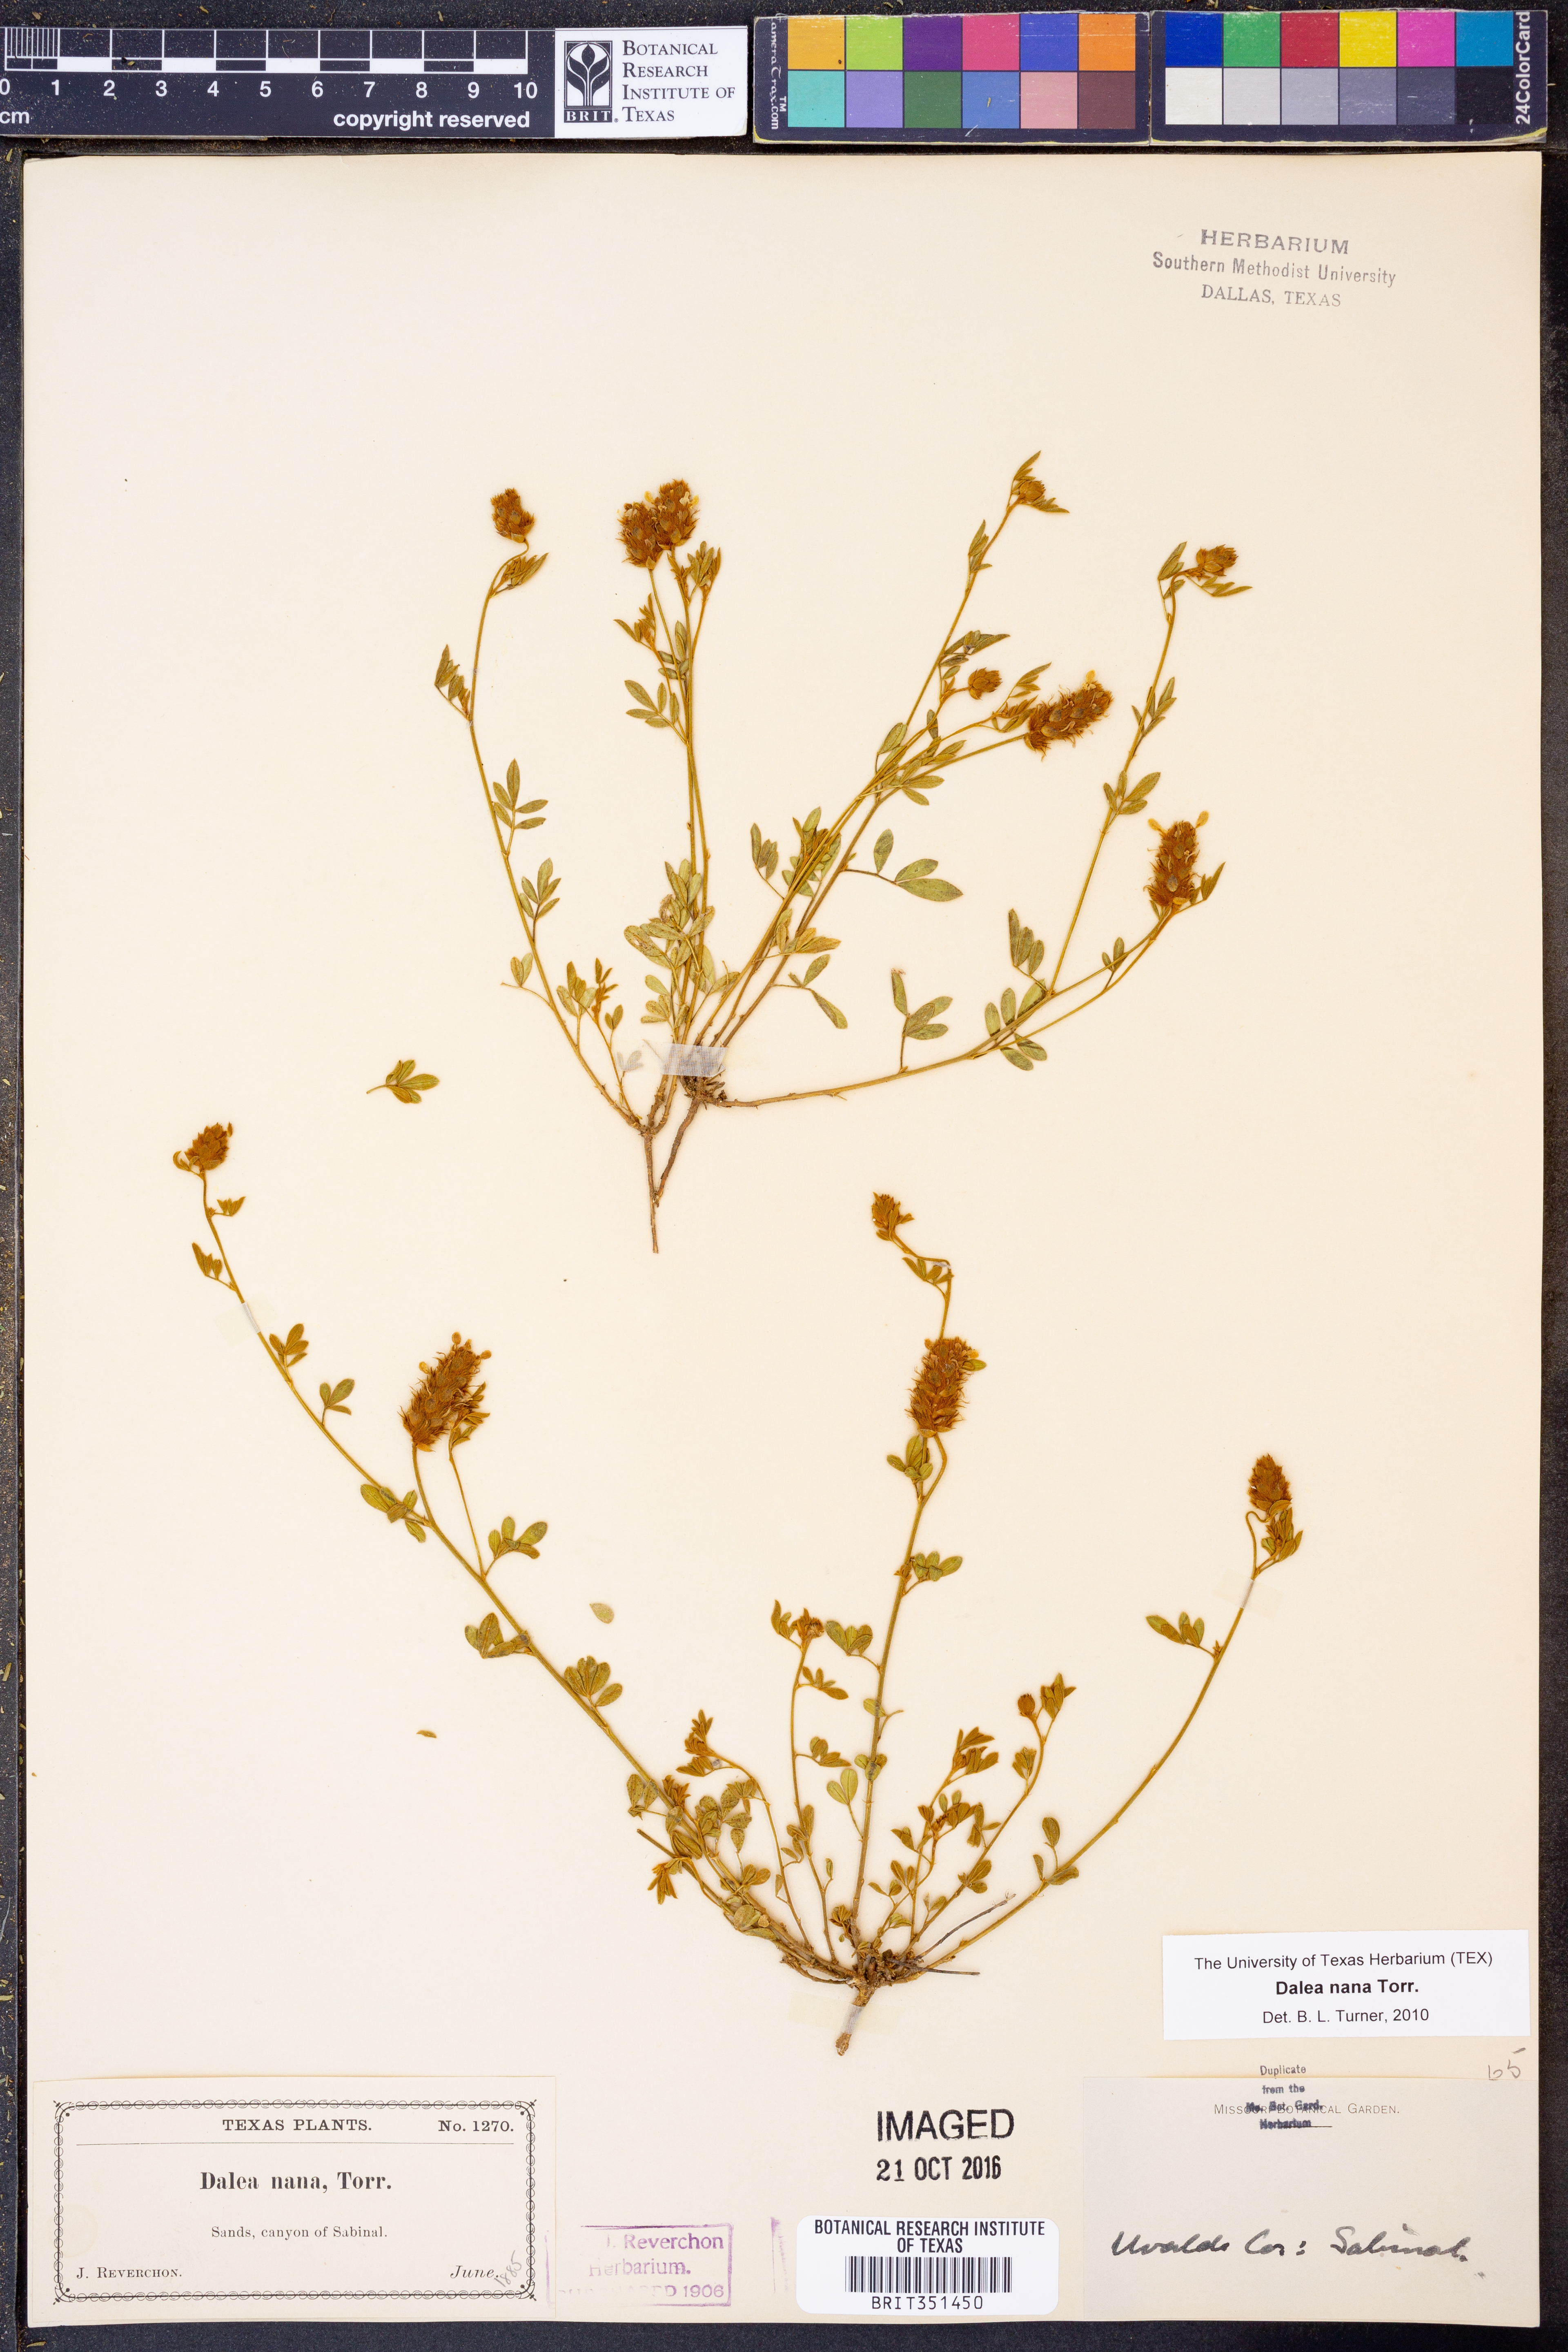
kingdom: Plantae
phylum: Tracheophyta
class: Magnoliopsida
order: Fabales
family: Fabaceae
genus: Dalea
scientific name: Dalea nana
